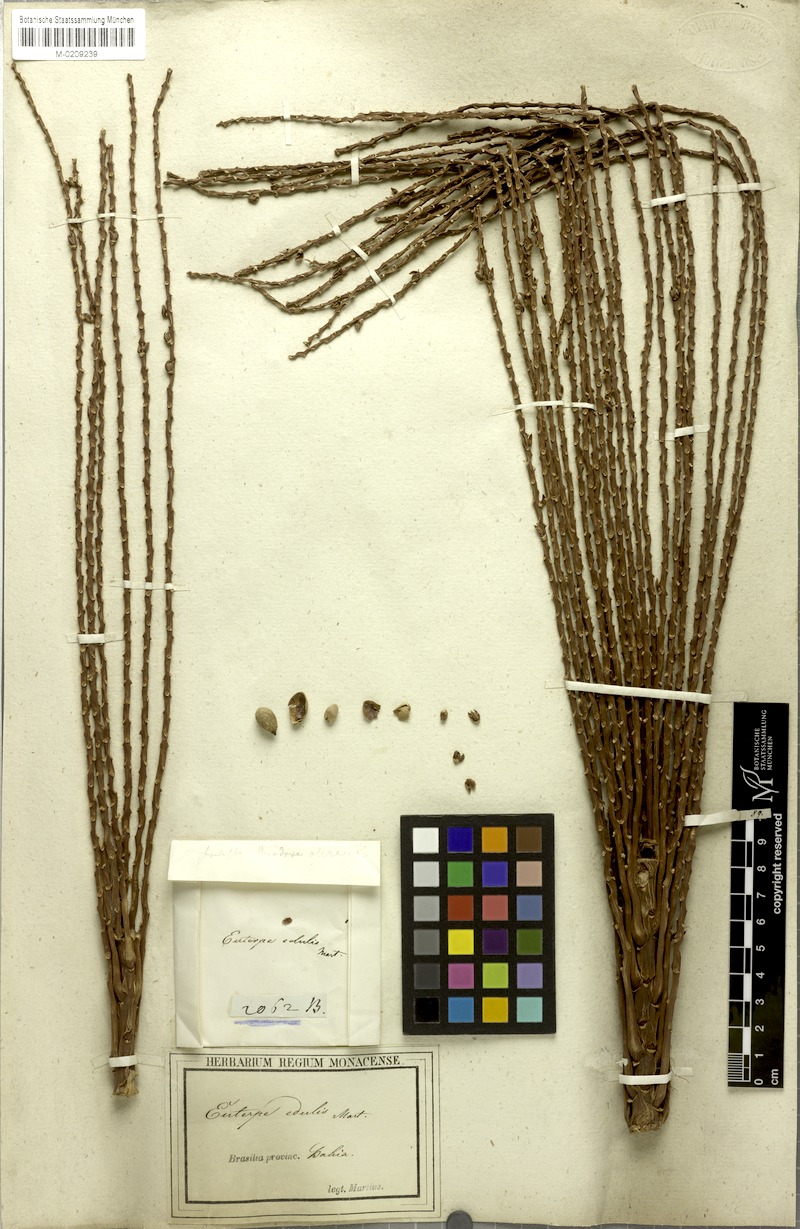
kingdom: Plantae
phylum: Tracheophyta
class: Liliopsida
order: Arecales
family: Arecaceae
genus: Euterpe
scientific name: Euterpe edulis
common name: Assai palm
